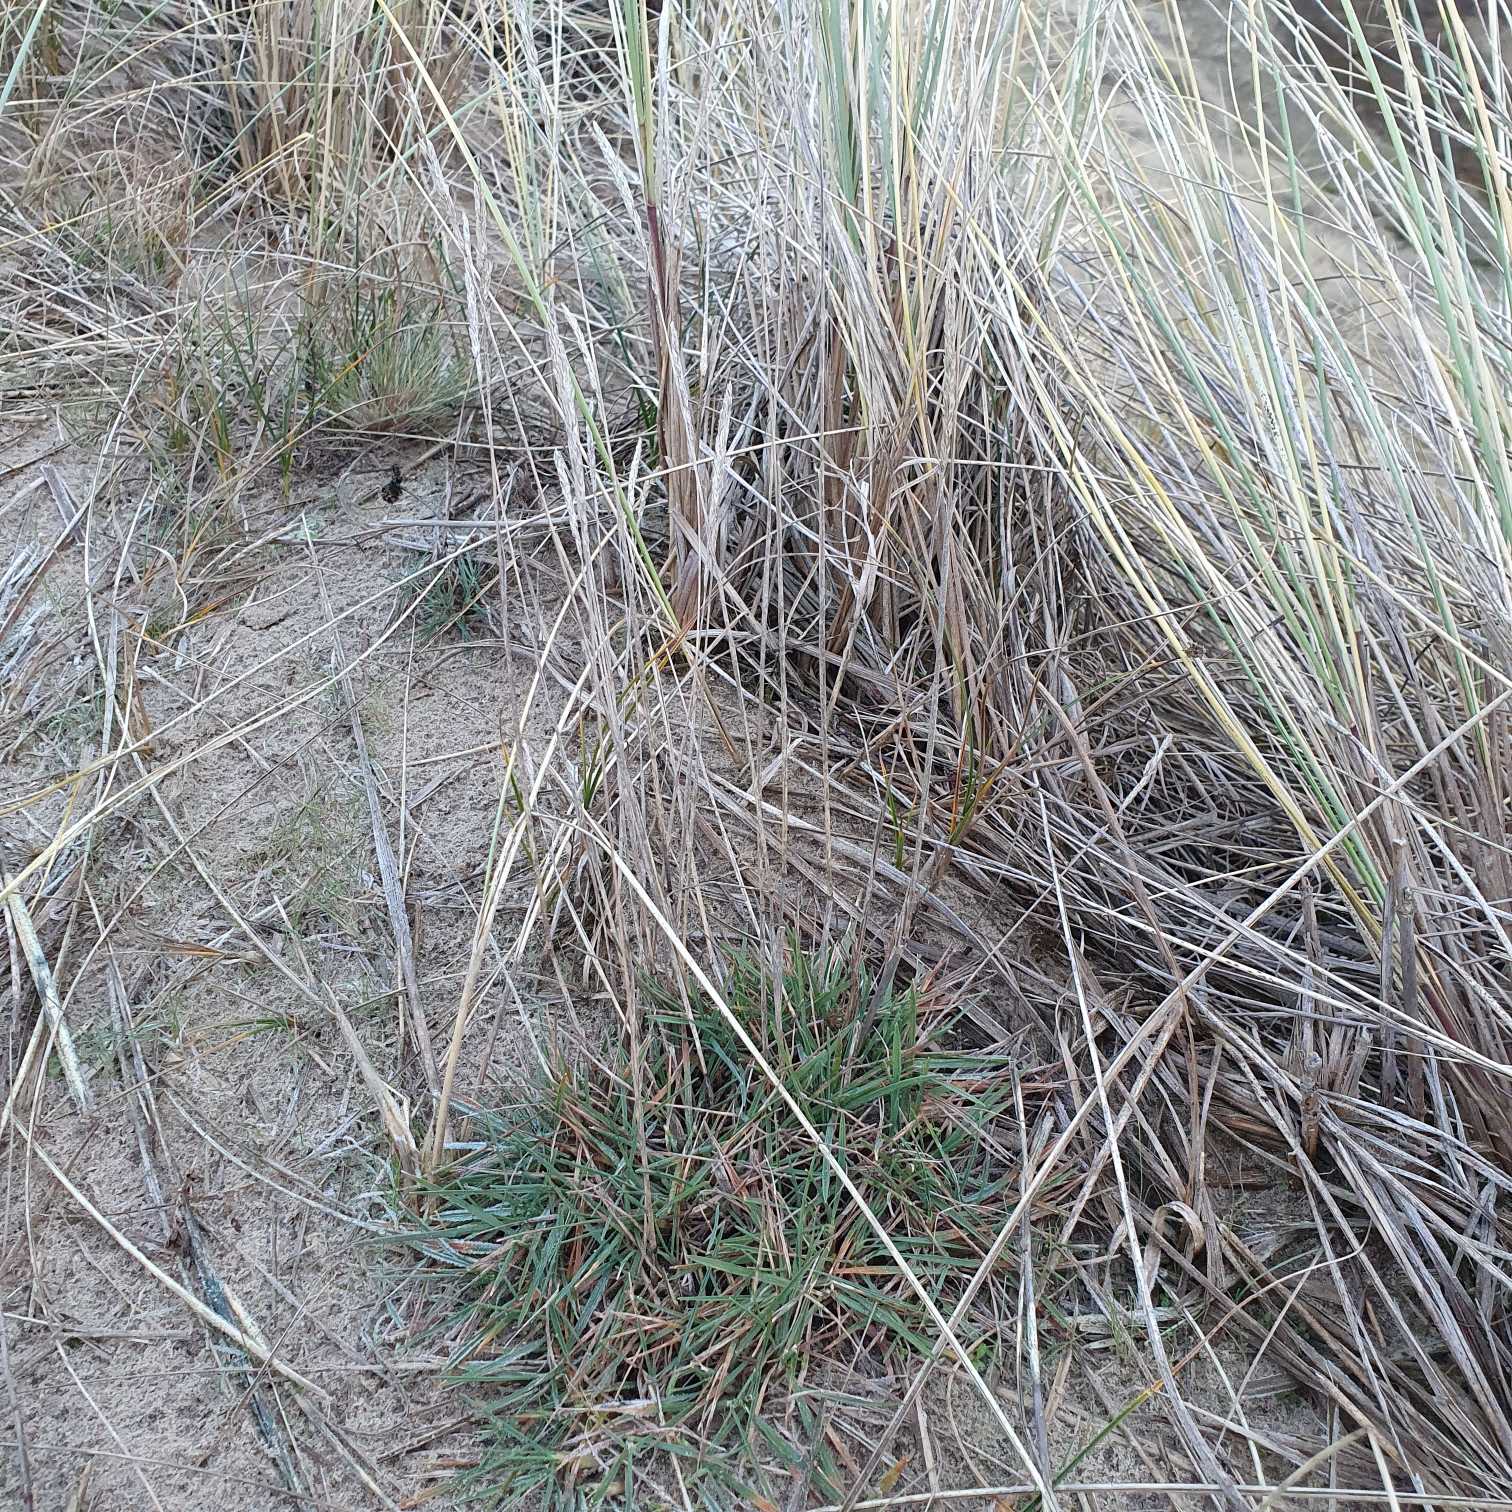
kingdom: Plantae
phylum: Tracheophyta
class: Liliopsida
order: Poales
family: Poaceae
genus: Koeleria
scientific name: Koeleria glauca
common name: Klit-kambunke
